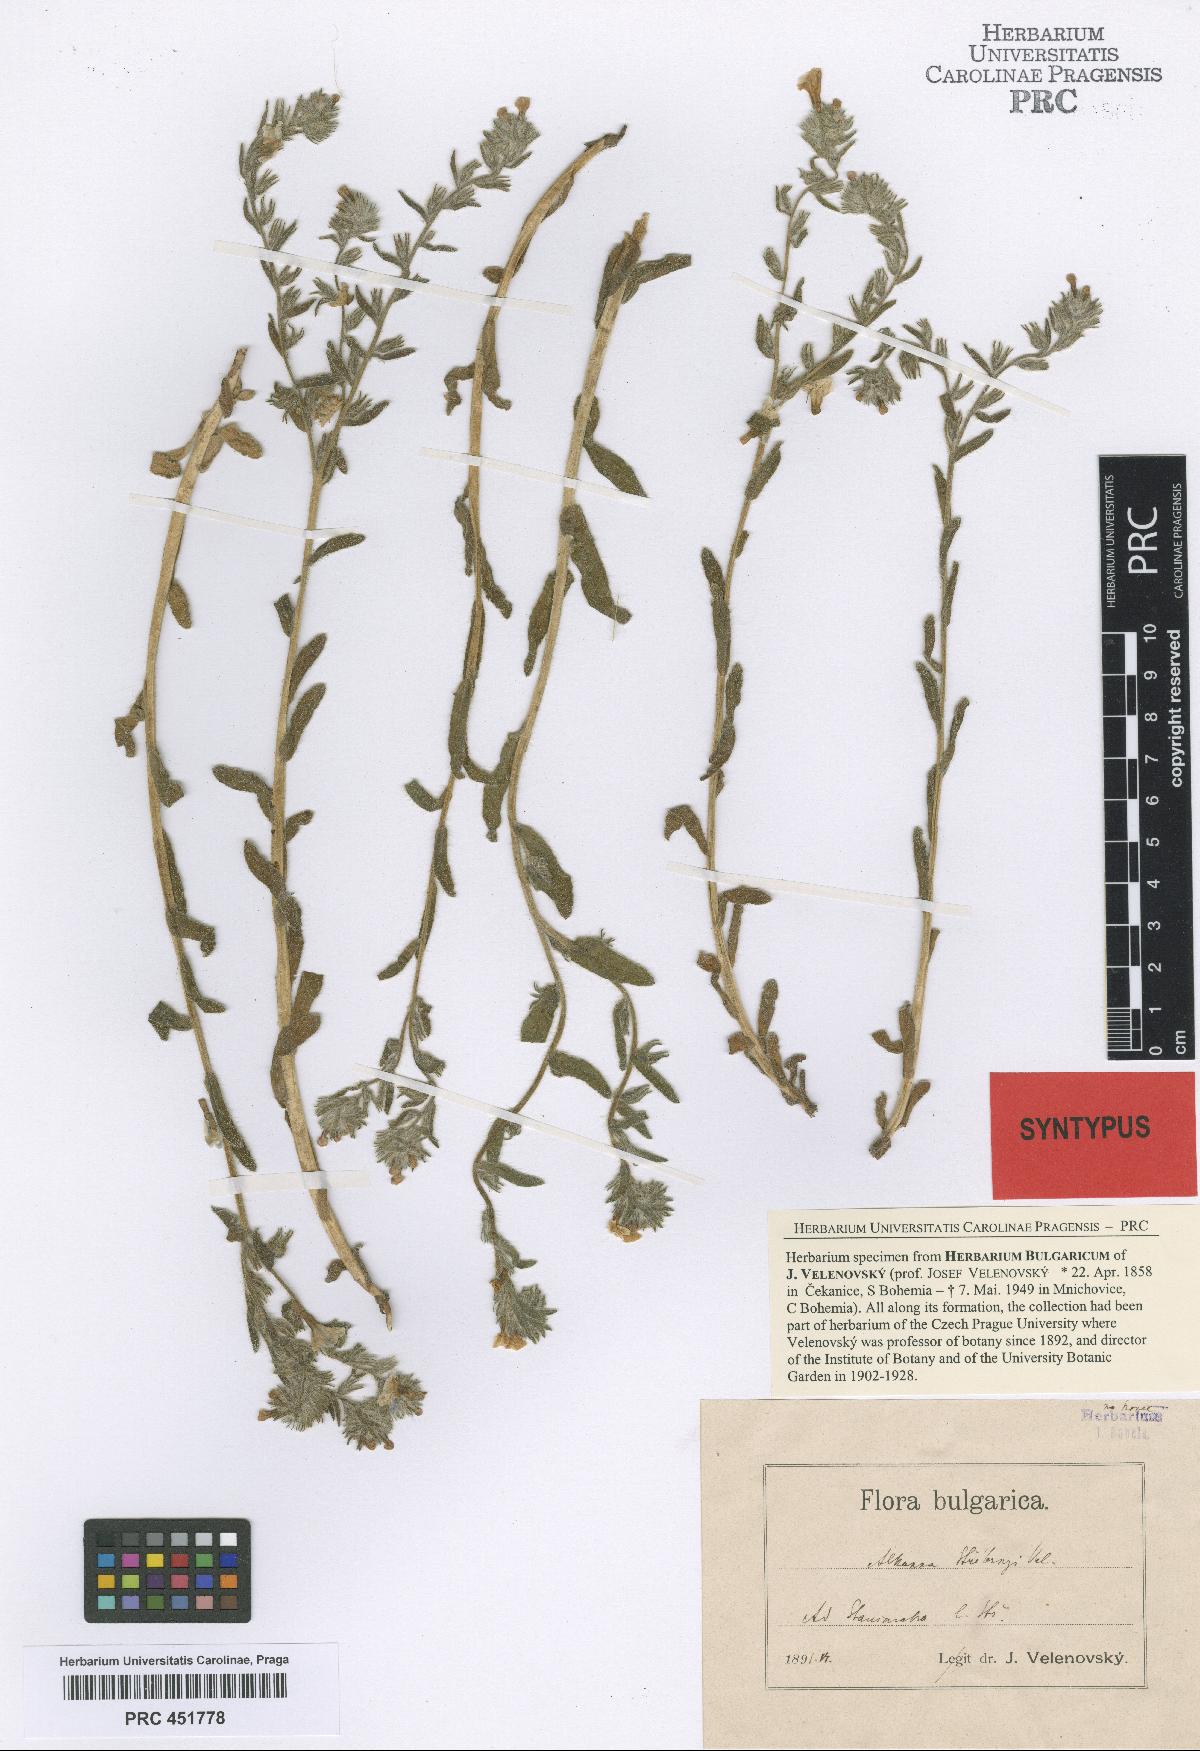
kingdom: Plantae
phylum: Tracheophyta
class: Magnoliopsida
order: Boraginales
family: Boraginaceae
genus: Alkanna
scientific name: Alkanna stribrnyi
